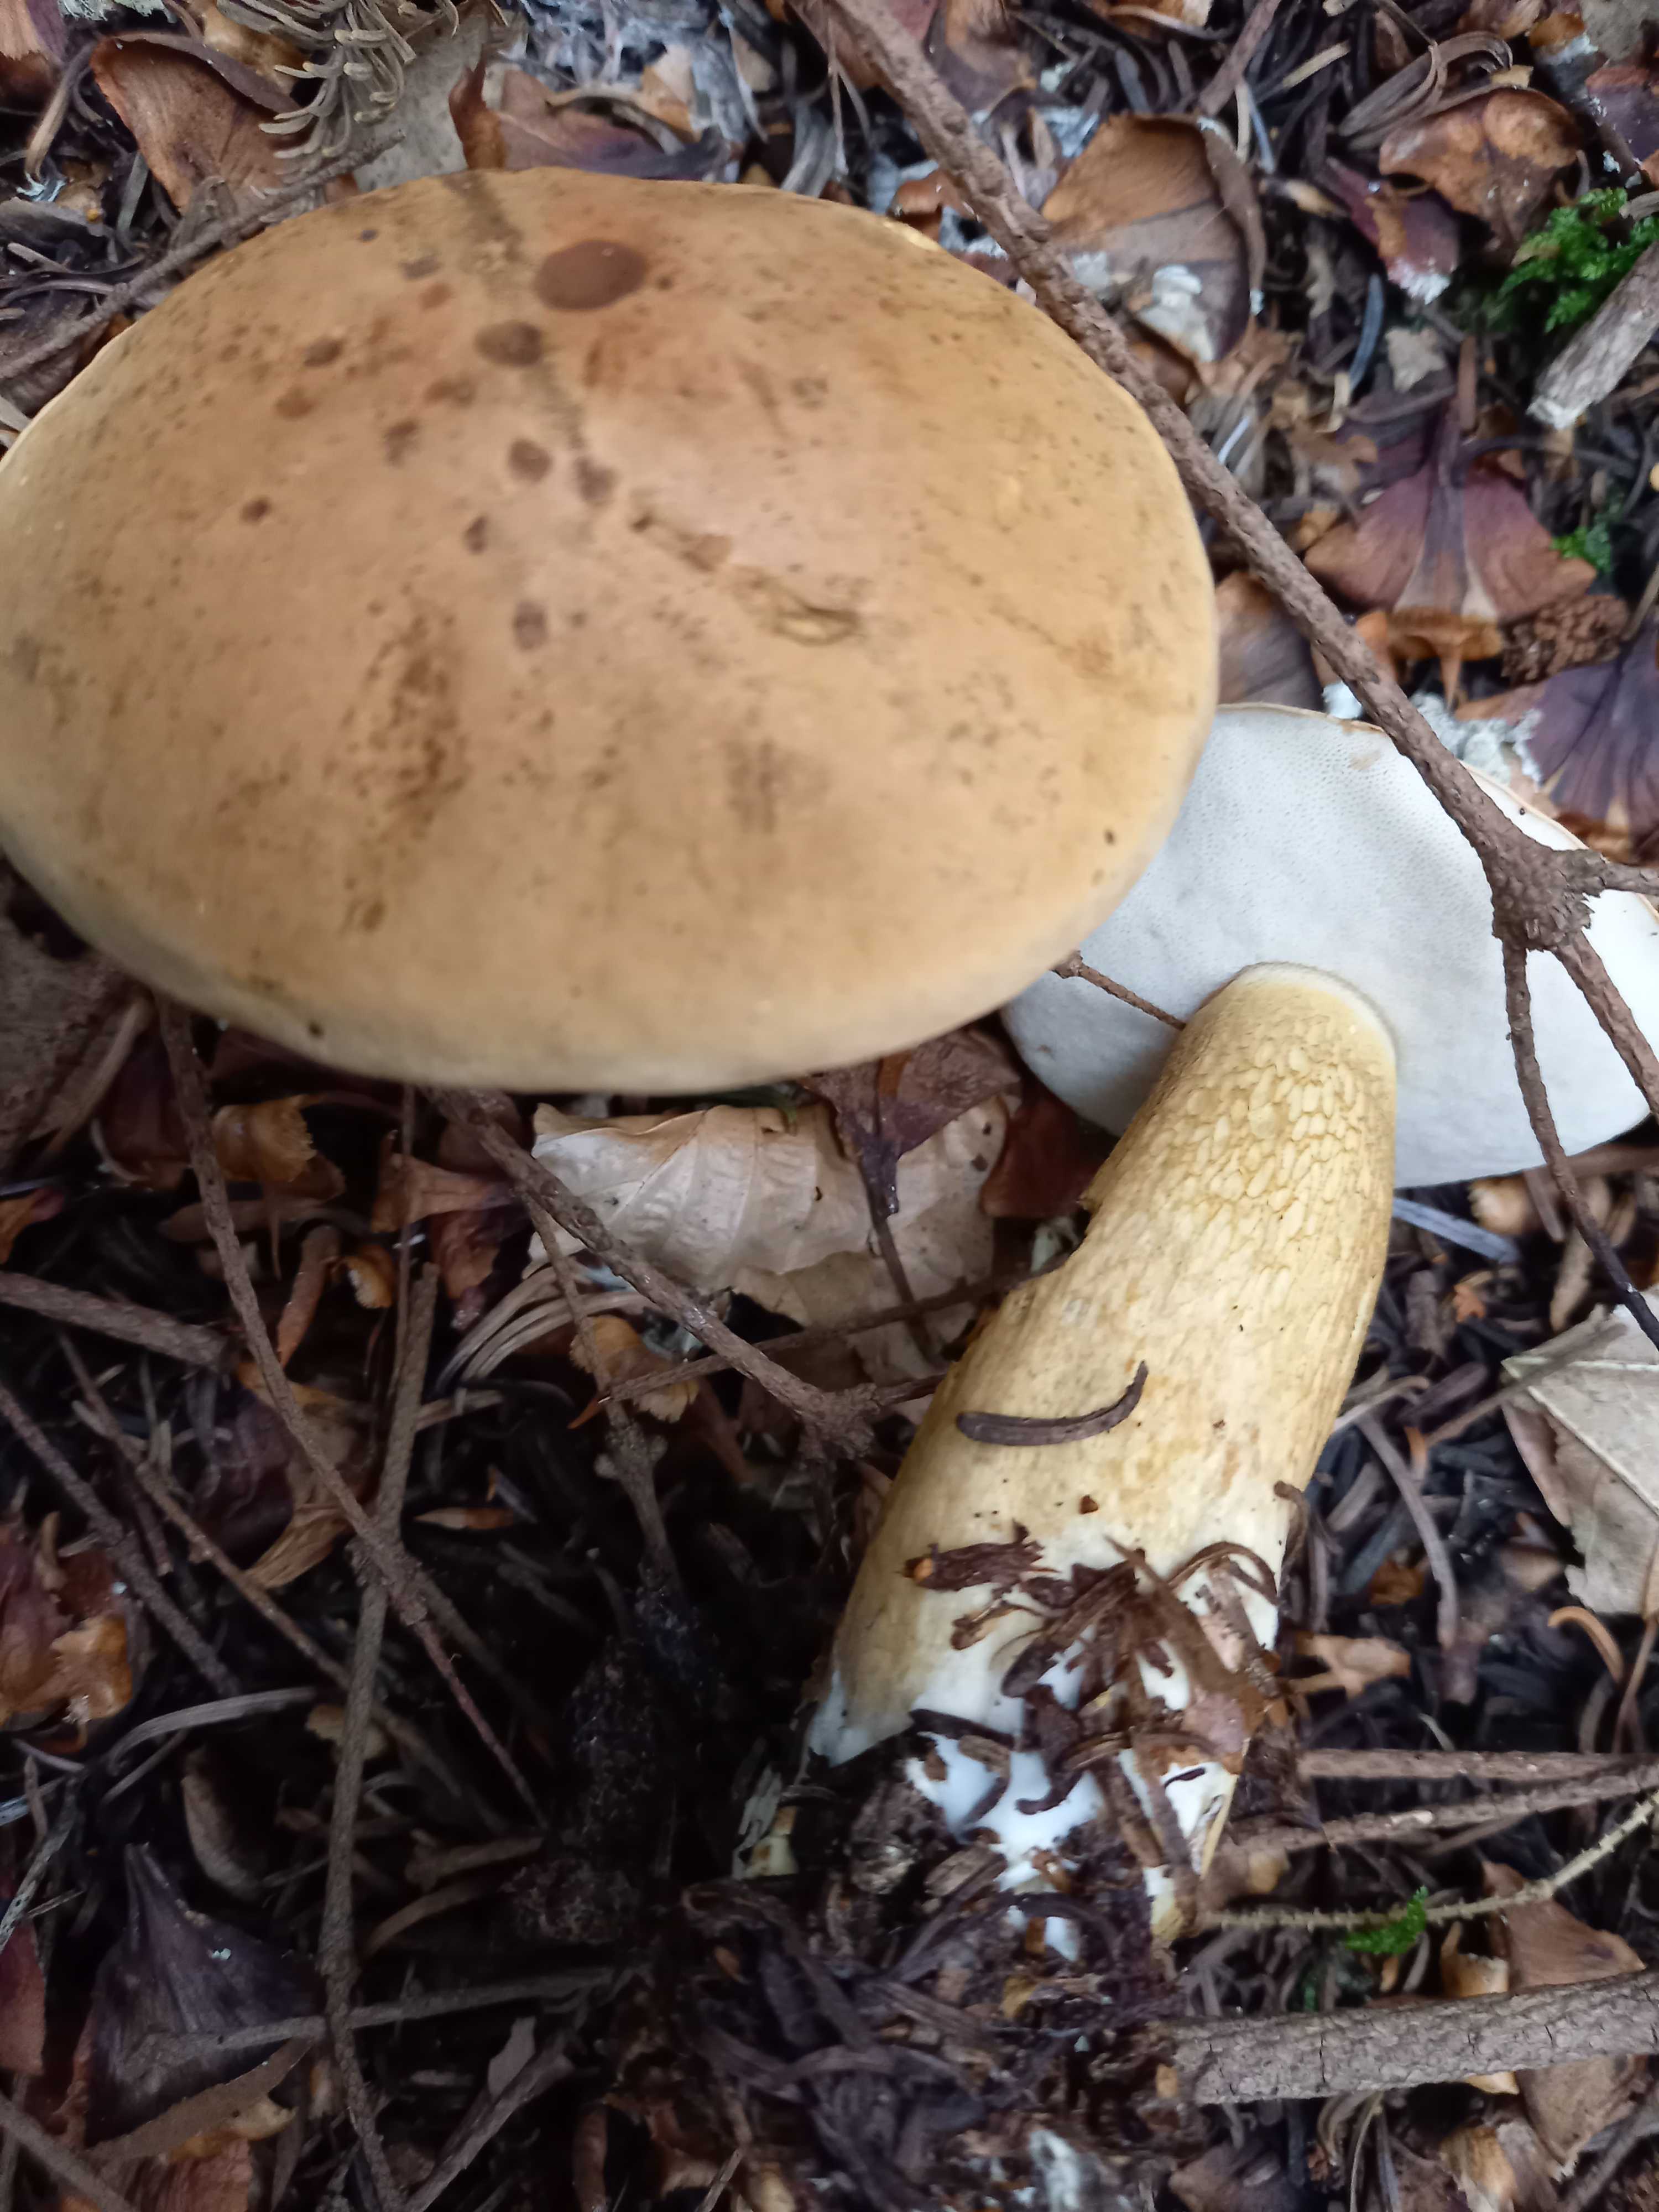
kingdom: Fungi
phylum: Basidiomycota
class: Agaricomycetes
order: Boletales
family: Boletaceae
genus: Tylopilus
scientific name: Tylopilus felleus
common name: galderørhat
